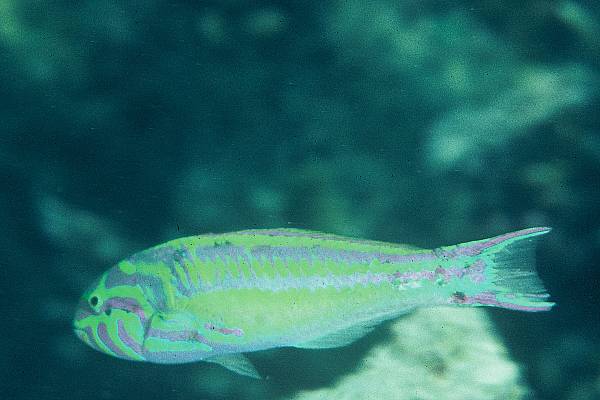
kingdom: Animalia
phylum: Chordata
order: Perciformes
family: Labridae
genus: Thalassoma
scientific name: Thalassoma
